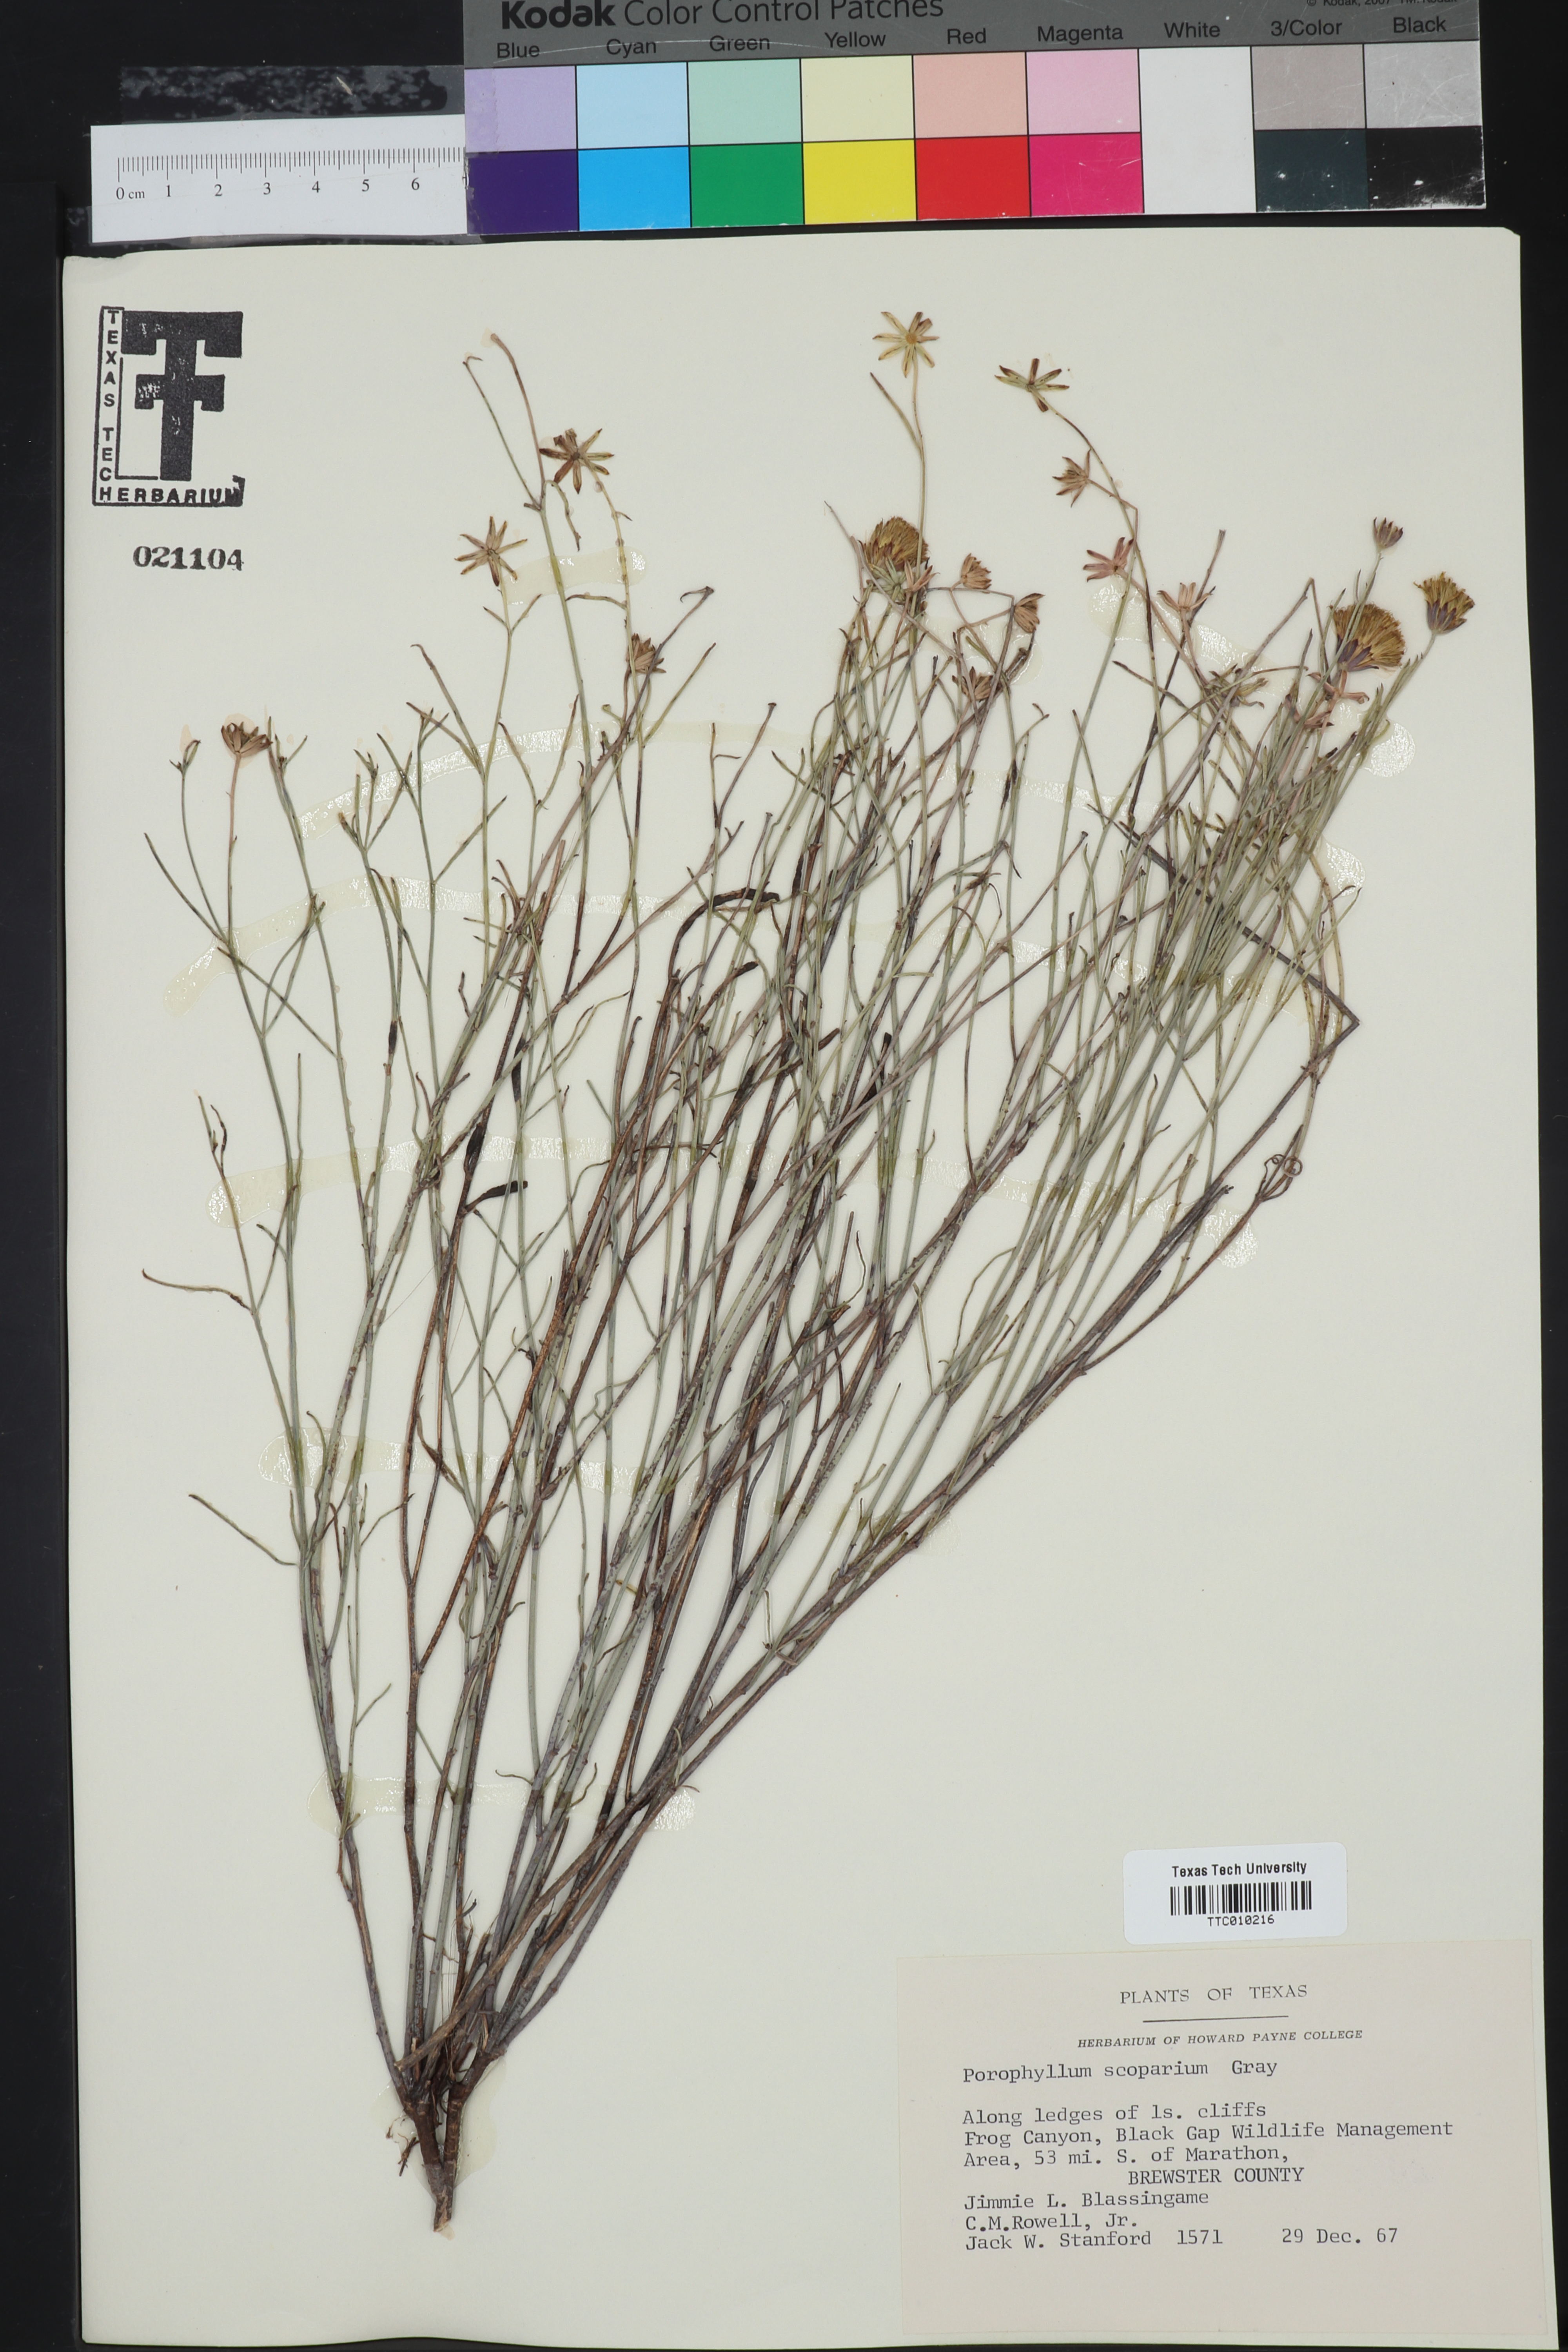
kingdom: Plantae
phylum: Tracheophyta
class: Magnoliopsida
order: Asterales
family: Asteraceae
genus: Porophyllum
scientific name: Porophyllum scoparium
